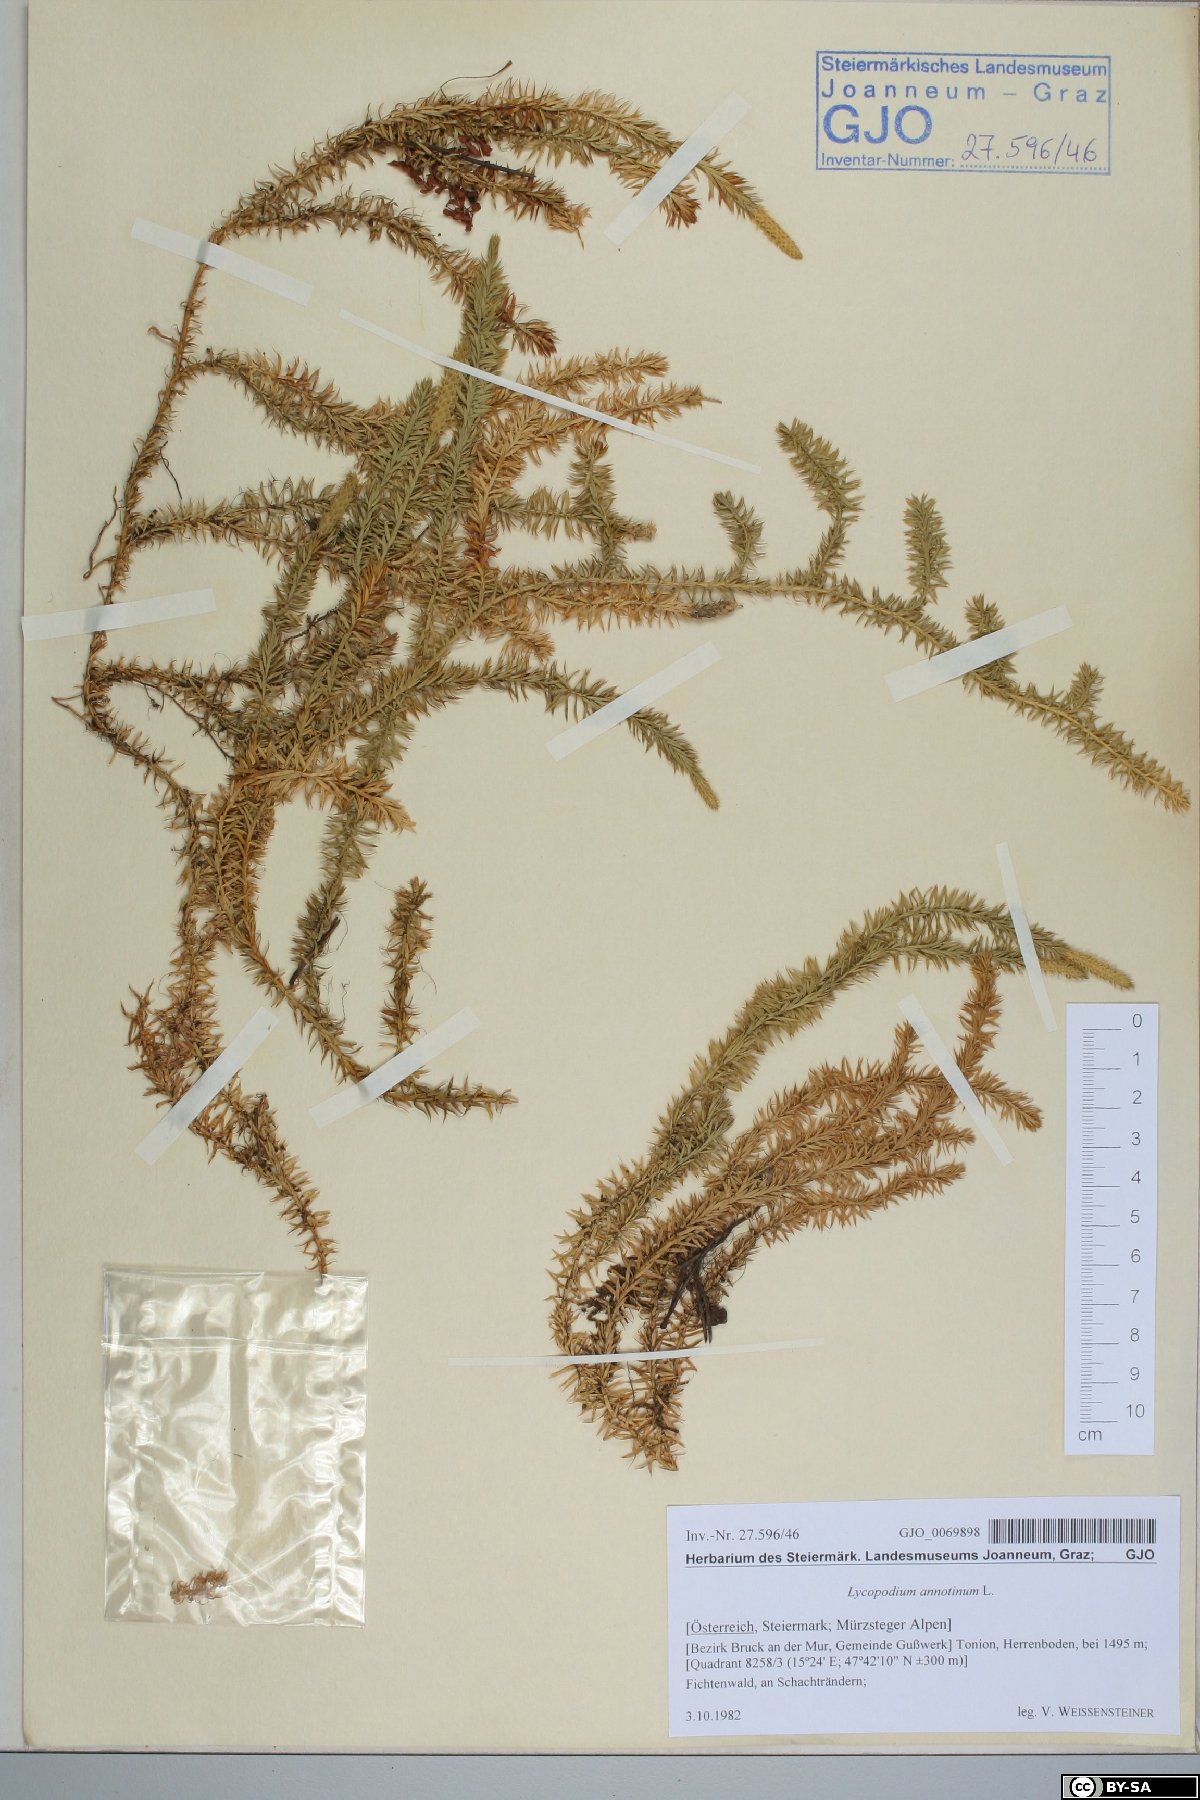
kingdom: Plantae
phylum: Tracheophyta
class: Lycopodiopsida
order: Lycopodiales
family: Lycopodiaceae
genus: Spinulum
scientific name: Spinulum annotinum
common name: Interrupted club-moss
